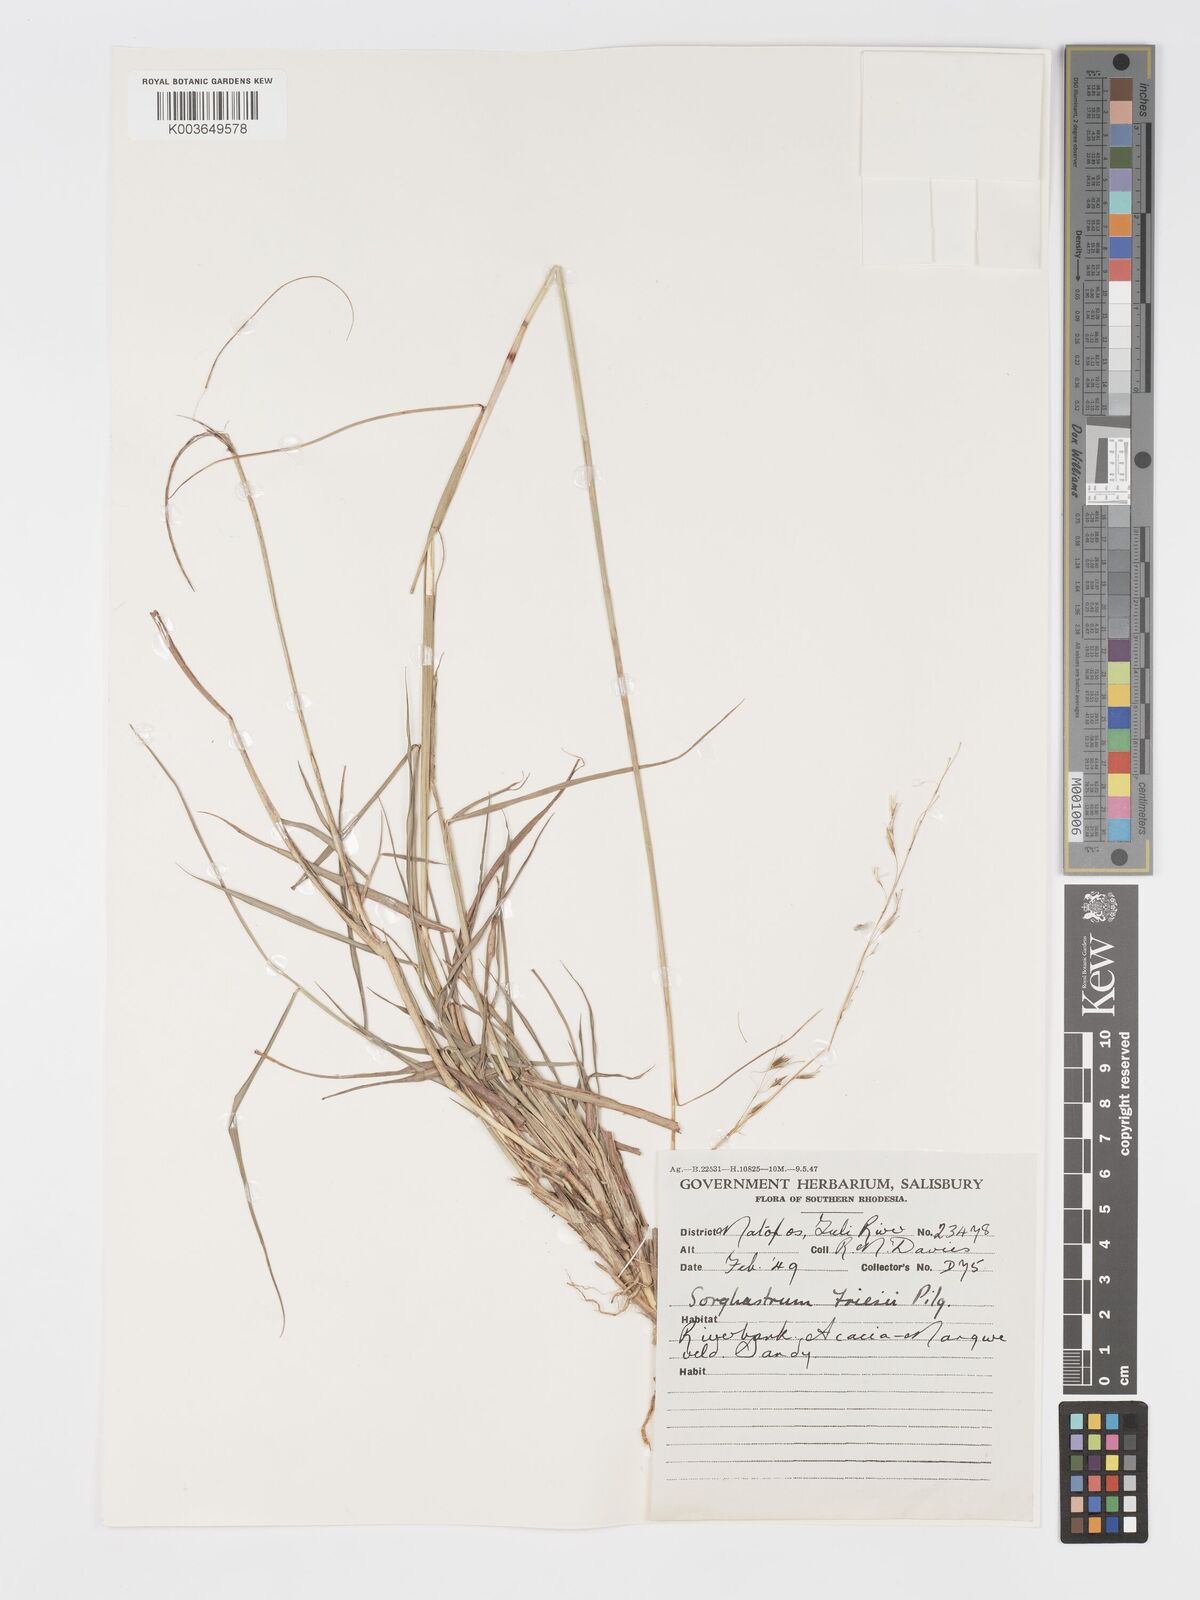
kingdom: Plantae
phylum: Tracheophyta
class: Liliopsida
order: Poales
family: Poaceae
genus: Sorghastrum
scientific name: Sorghastrum nudipes
